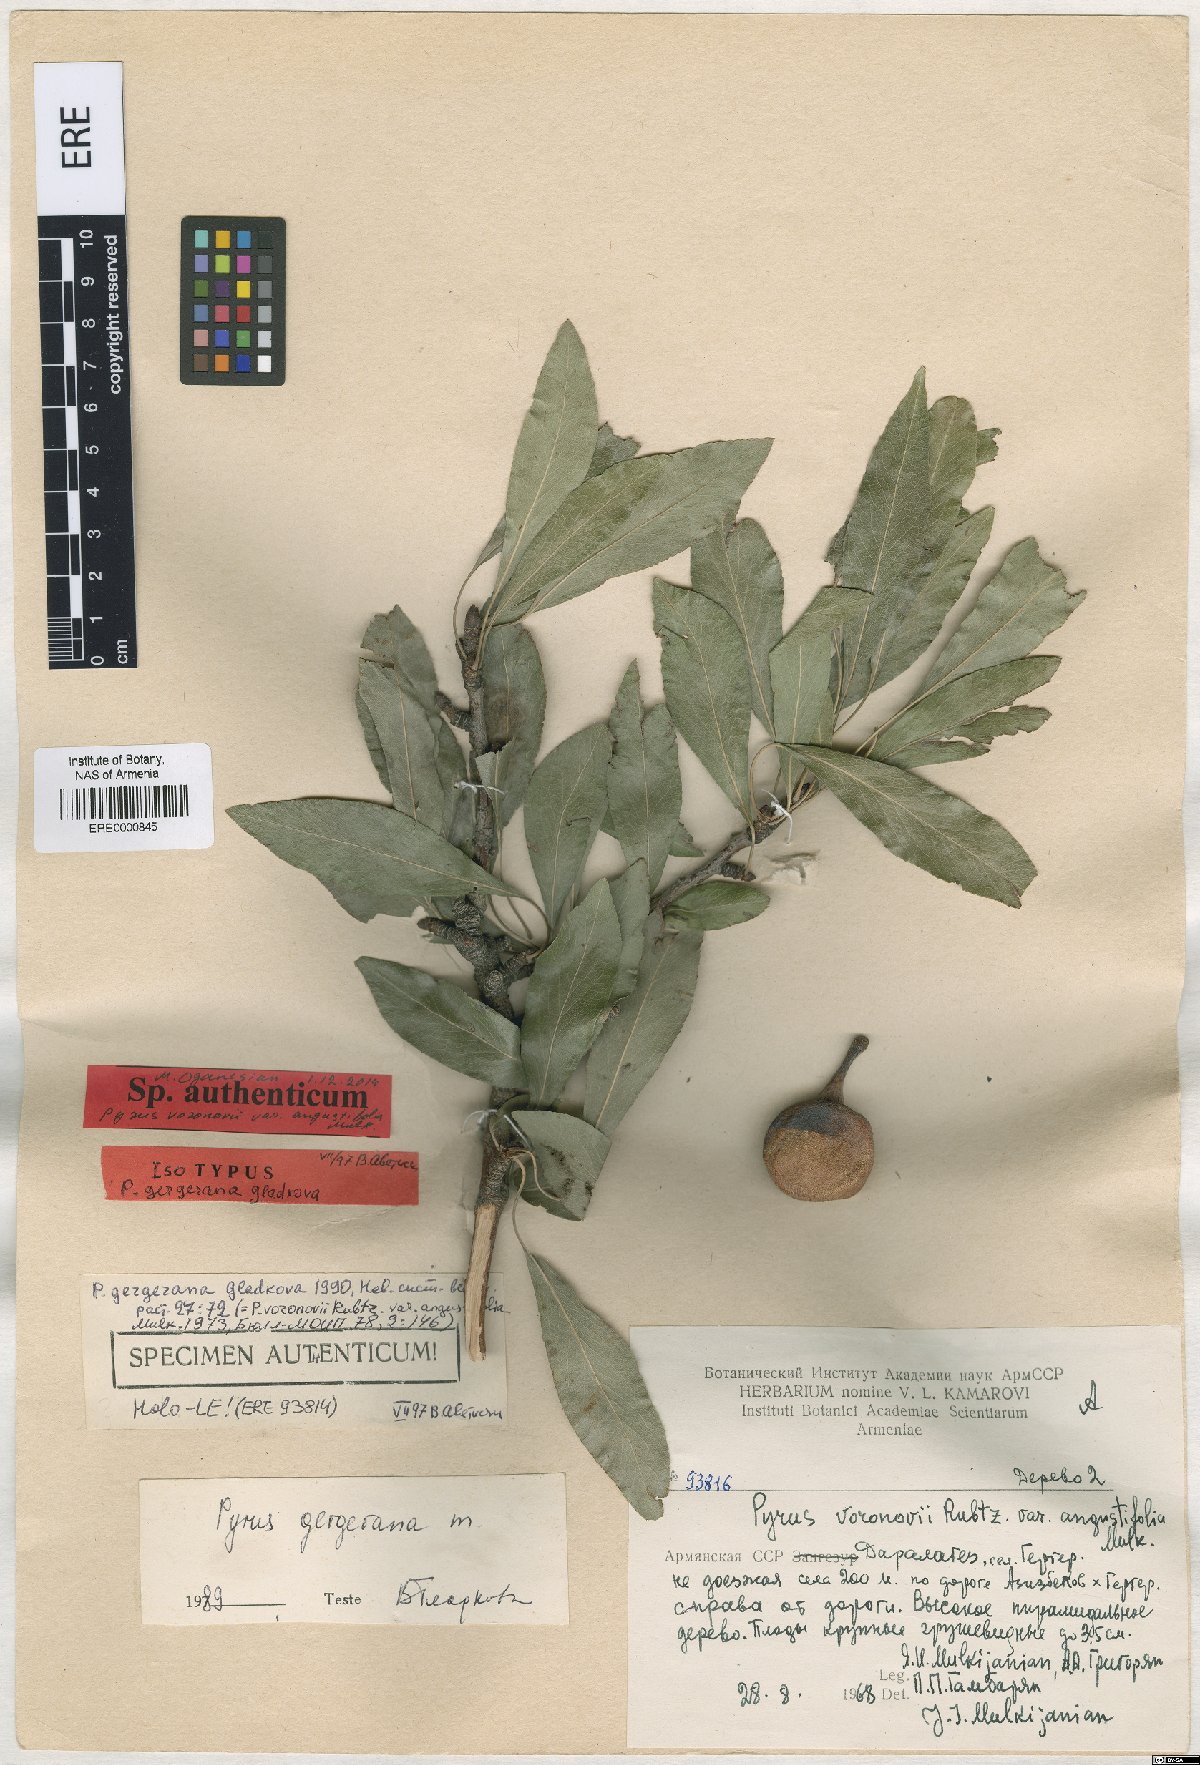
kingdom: Plantae
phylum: Tracheophyta
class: Magnoliopsida
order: Rosales
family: Rosaceae
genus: Pyrus
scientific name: Pyrus gergerana
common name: Gergeranian pear
